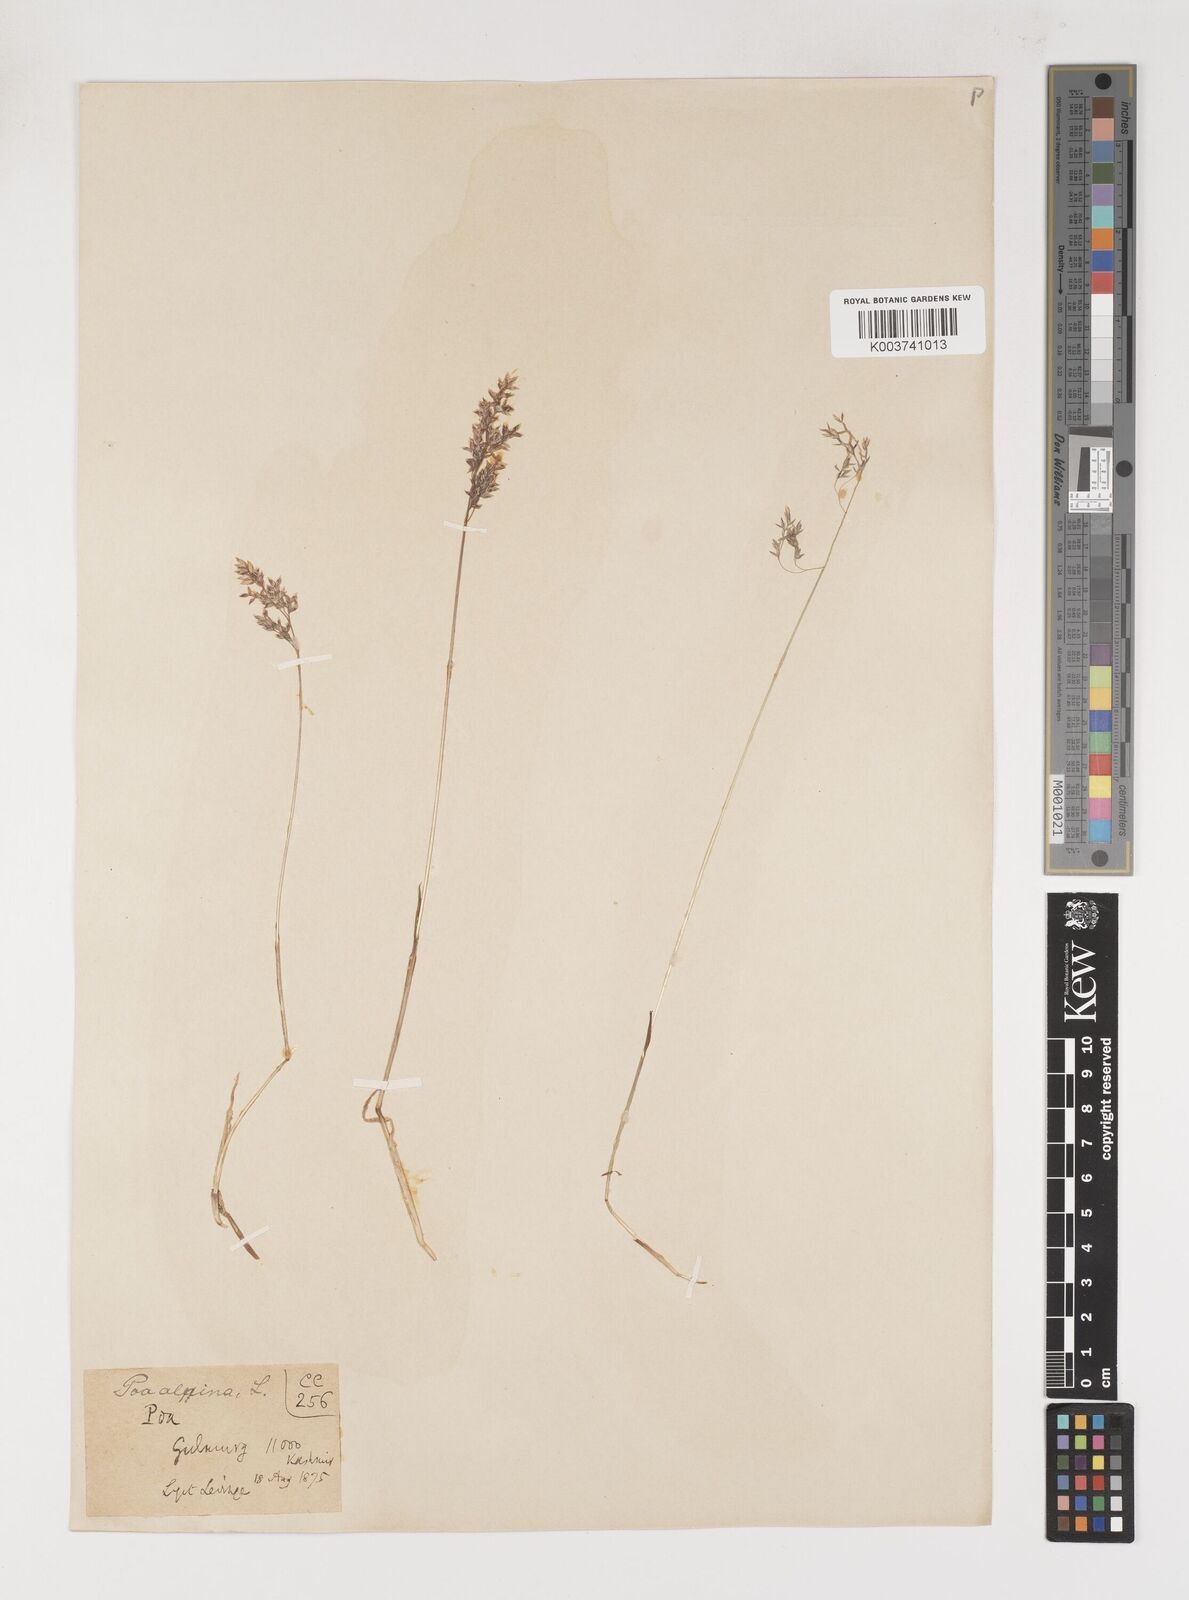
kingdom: Plantae
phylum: Tracheophyta
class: Liliopsida
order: Poales
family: Poaceae
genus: Poa
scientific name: Poa alpina
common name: Alpine bluegrass
